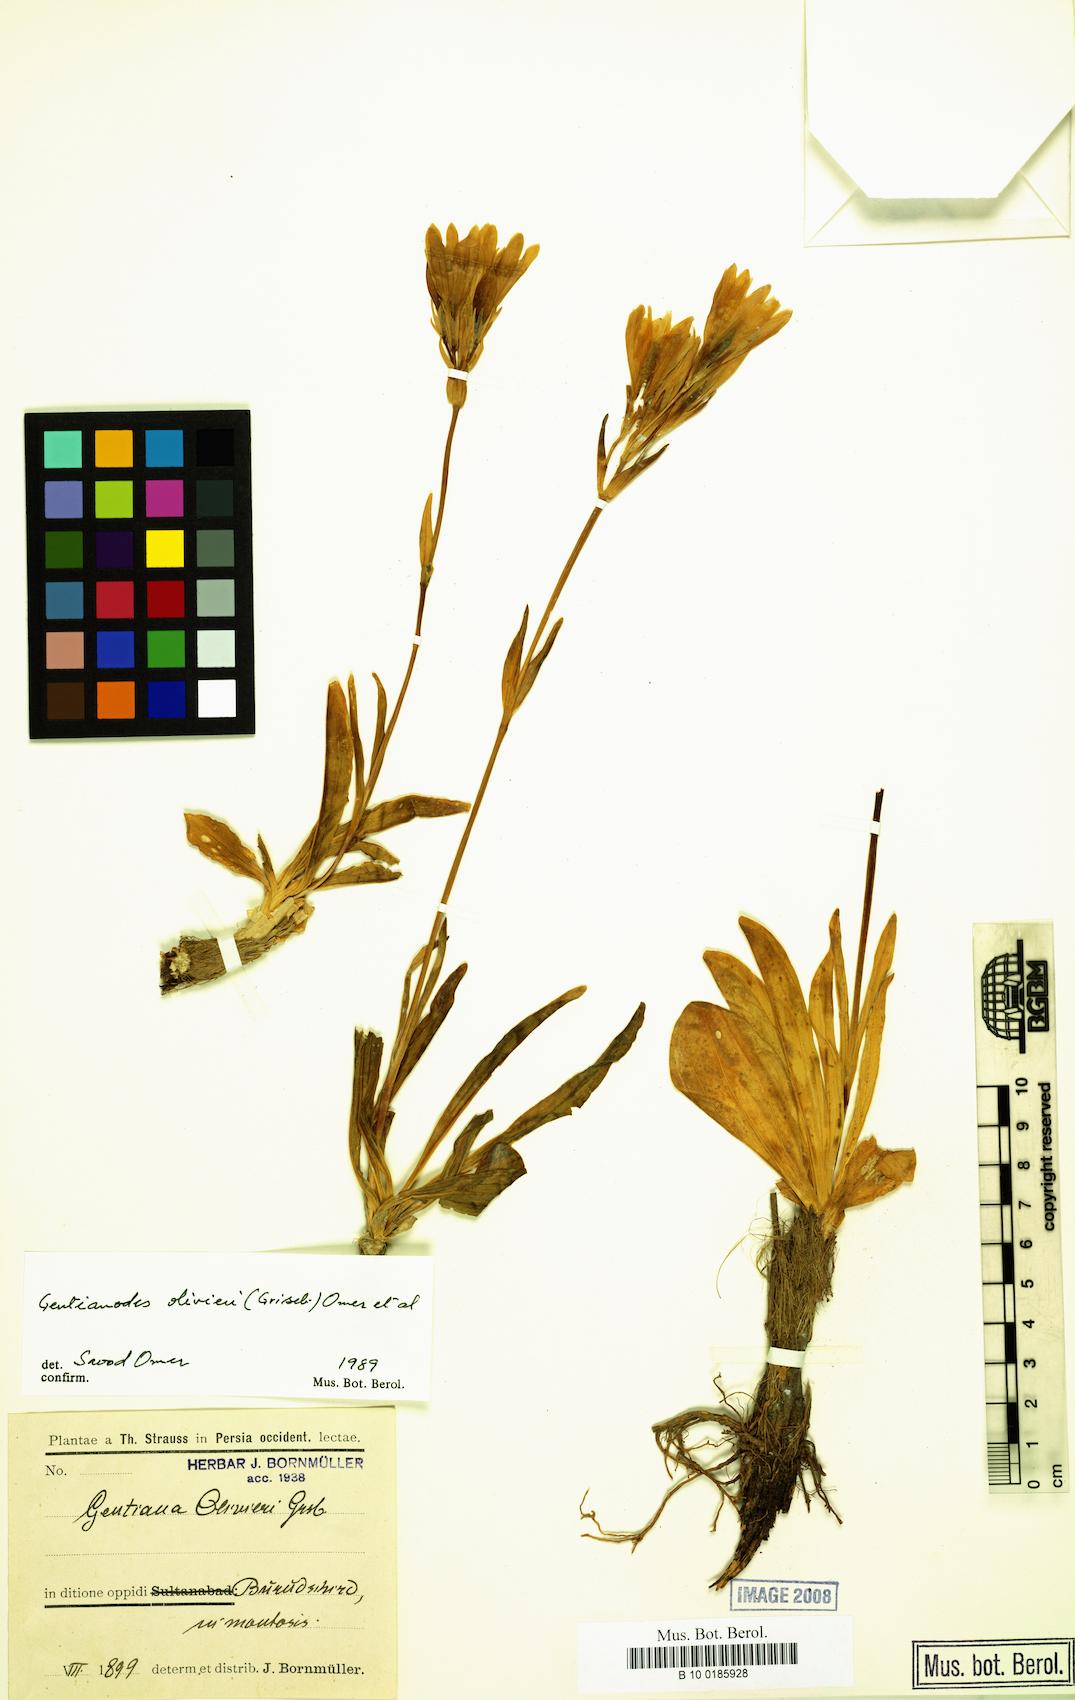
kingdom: Plantae
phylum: Tracheophyta
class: Magnoliopsida
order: Gentianales
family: Gentianaceae
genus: Gentiana
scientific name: Gentiana olivieri
